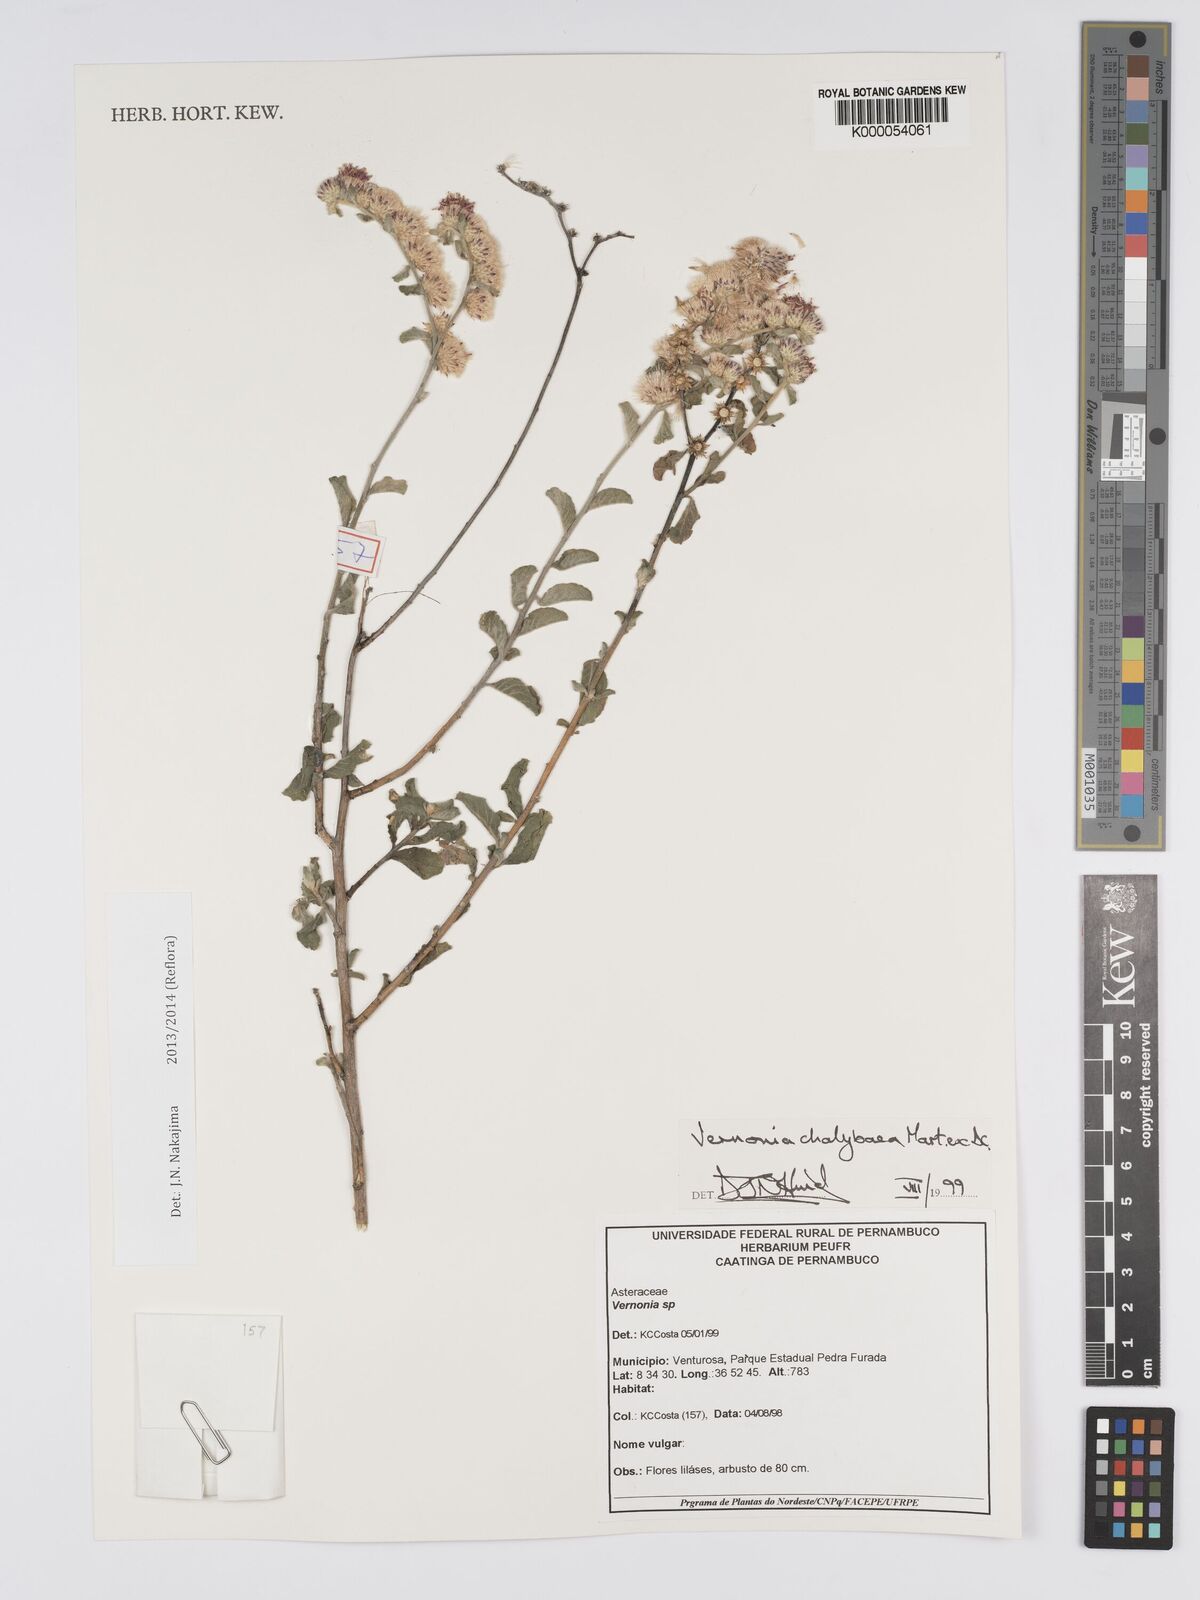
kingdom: Plantae
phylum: Tracheophyta
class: Magnoliopsida
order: Asterales
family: Asteraceae
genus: Lepidaploa
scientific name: Lepidaploa chalybaea
